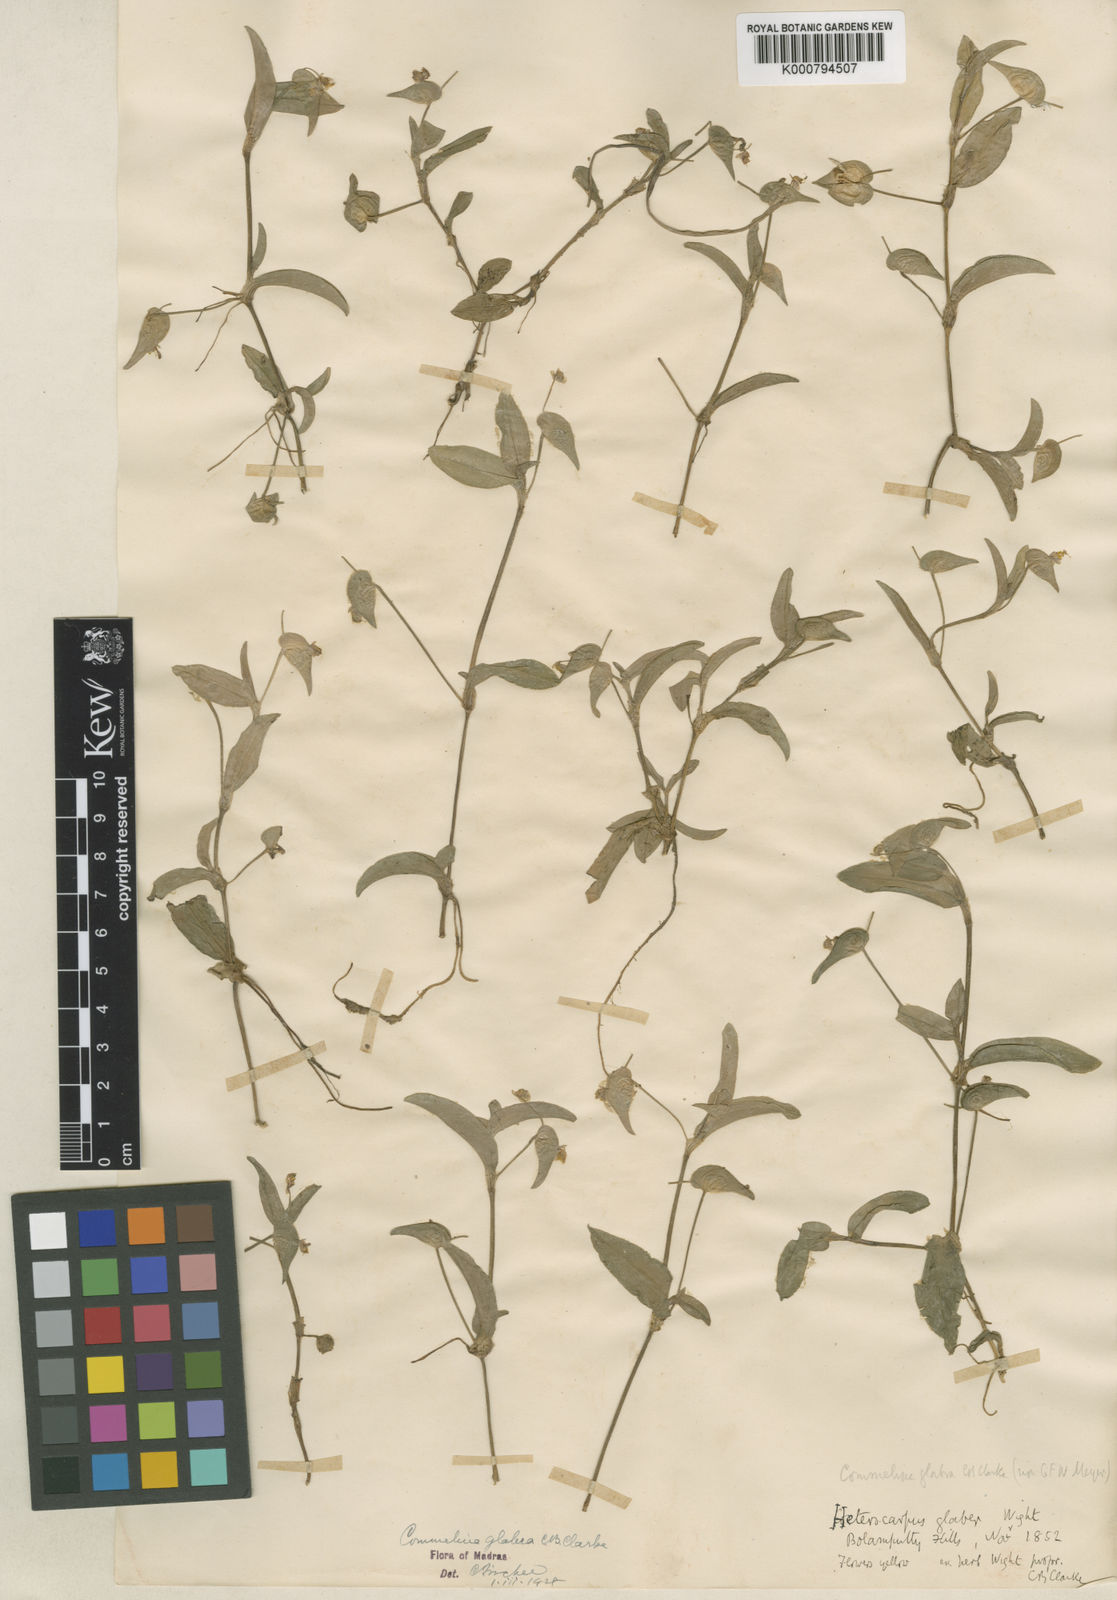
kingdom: Plantae
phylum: Tracheophyta
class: Liliopsida
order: Commelinales
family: Commelinaceae
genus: Commelina
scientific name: Commelina
